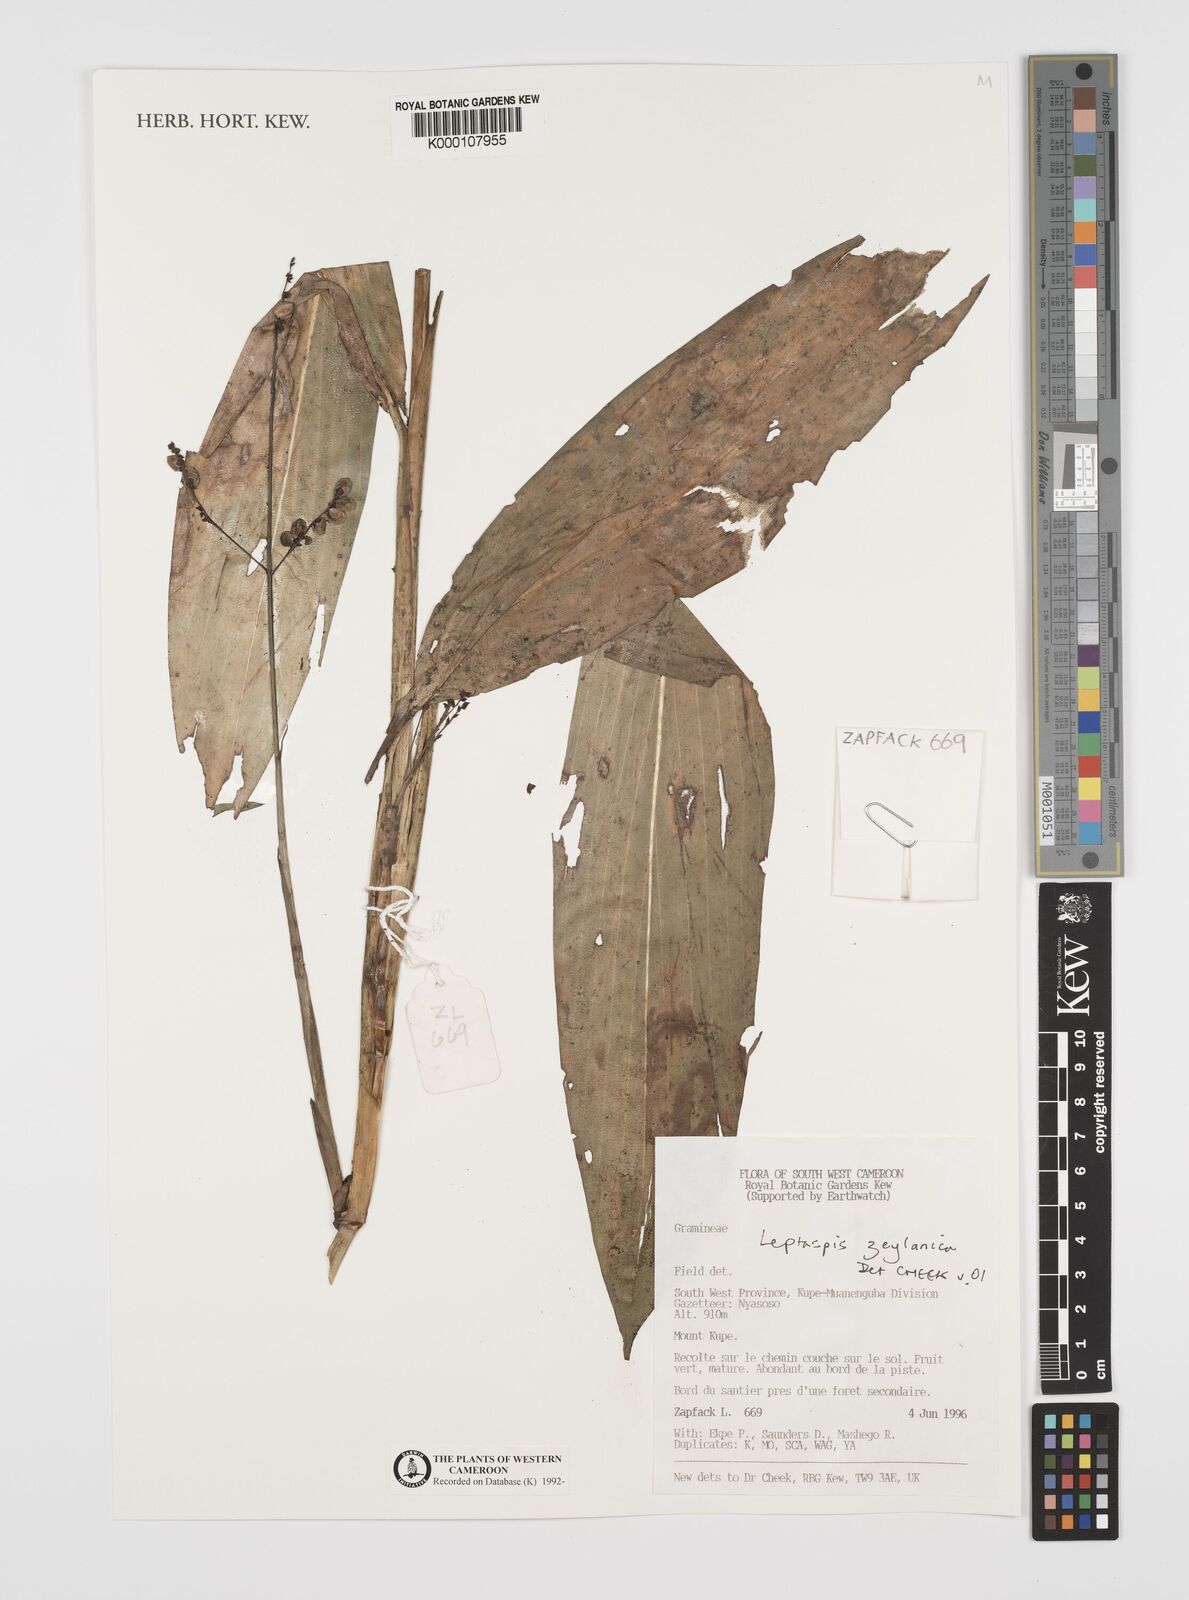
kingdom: Plantae
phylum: Tracheophyta
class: Liliopsida
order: Poales
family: Poaceae
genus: Leptaspis
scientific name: Leptaspis zeylanica
